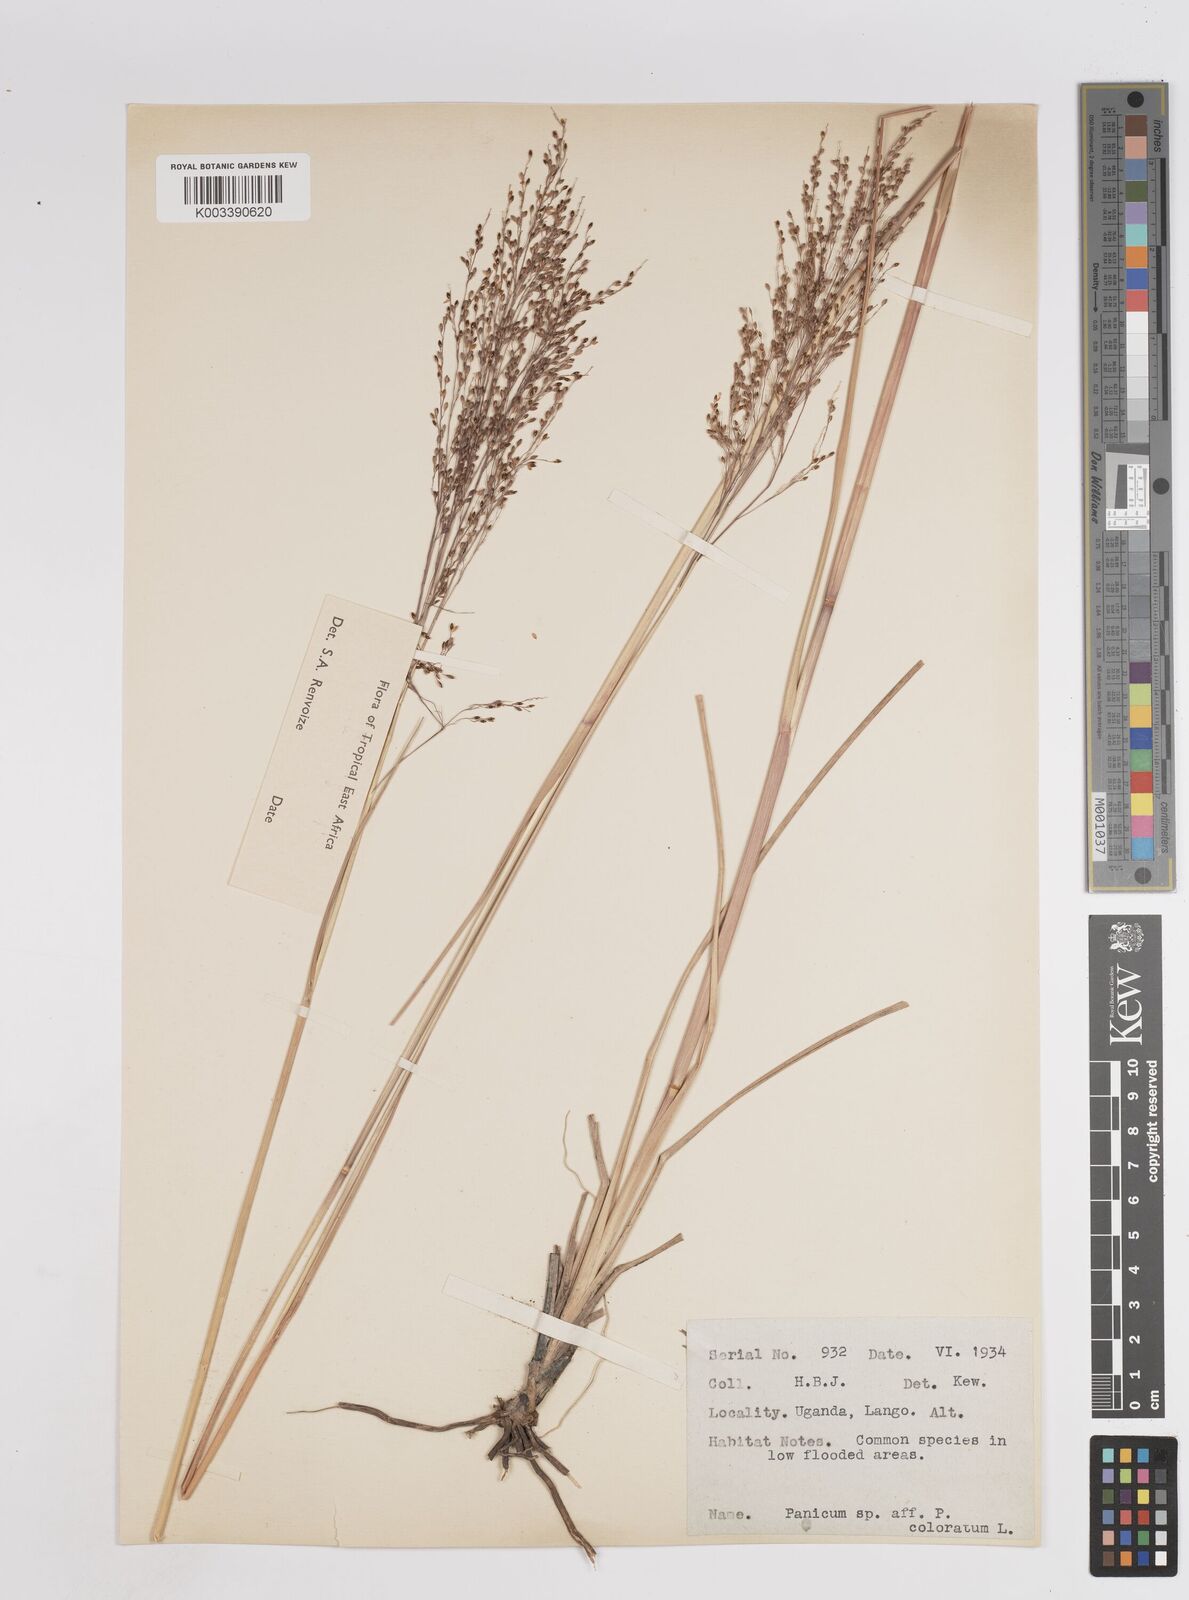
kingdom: Plantae
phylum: Tracheophyta
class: Liliopsida
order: Poales
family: Poaceae
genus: Panicum
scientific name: Panicum carneovaginatum
